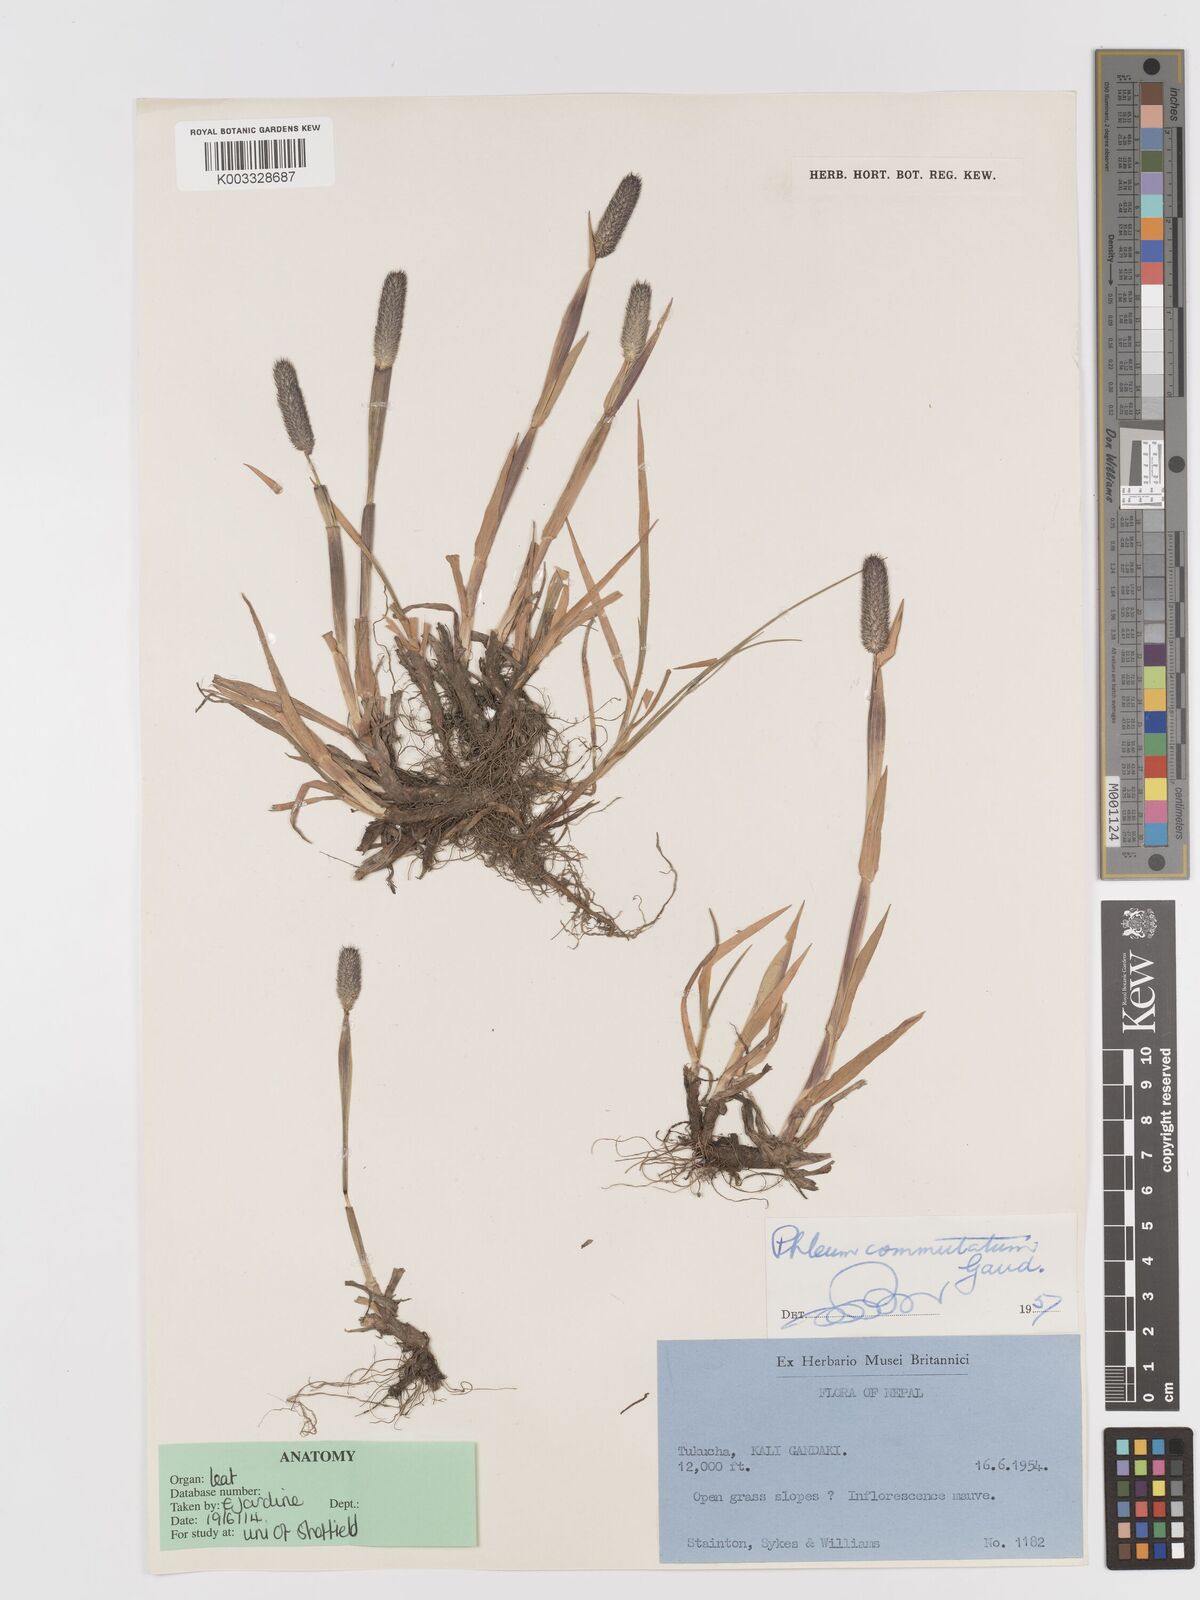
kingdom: Plantae
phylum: Tracheophyta
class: Liliopsida
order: Poales
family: Poaceae
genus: Phleum
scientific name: Phleum alpinum
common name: Alpine cat's-tail
